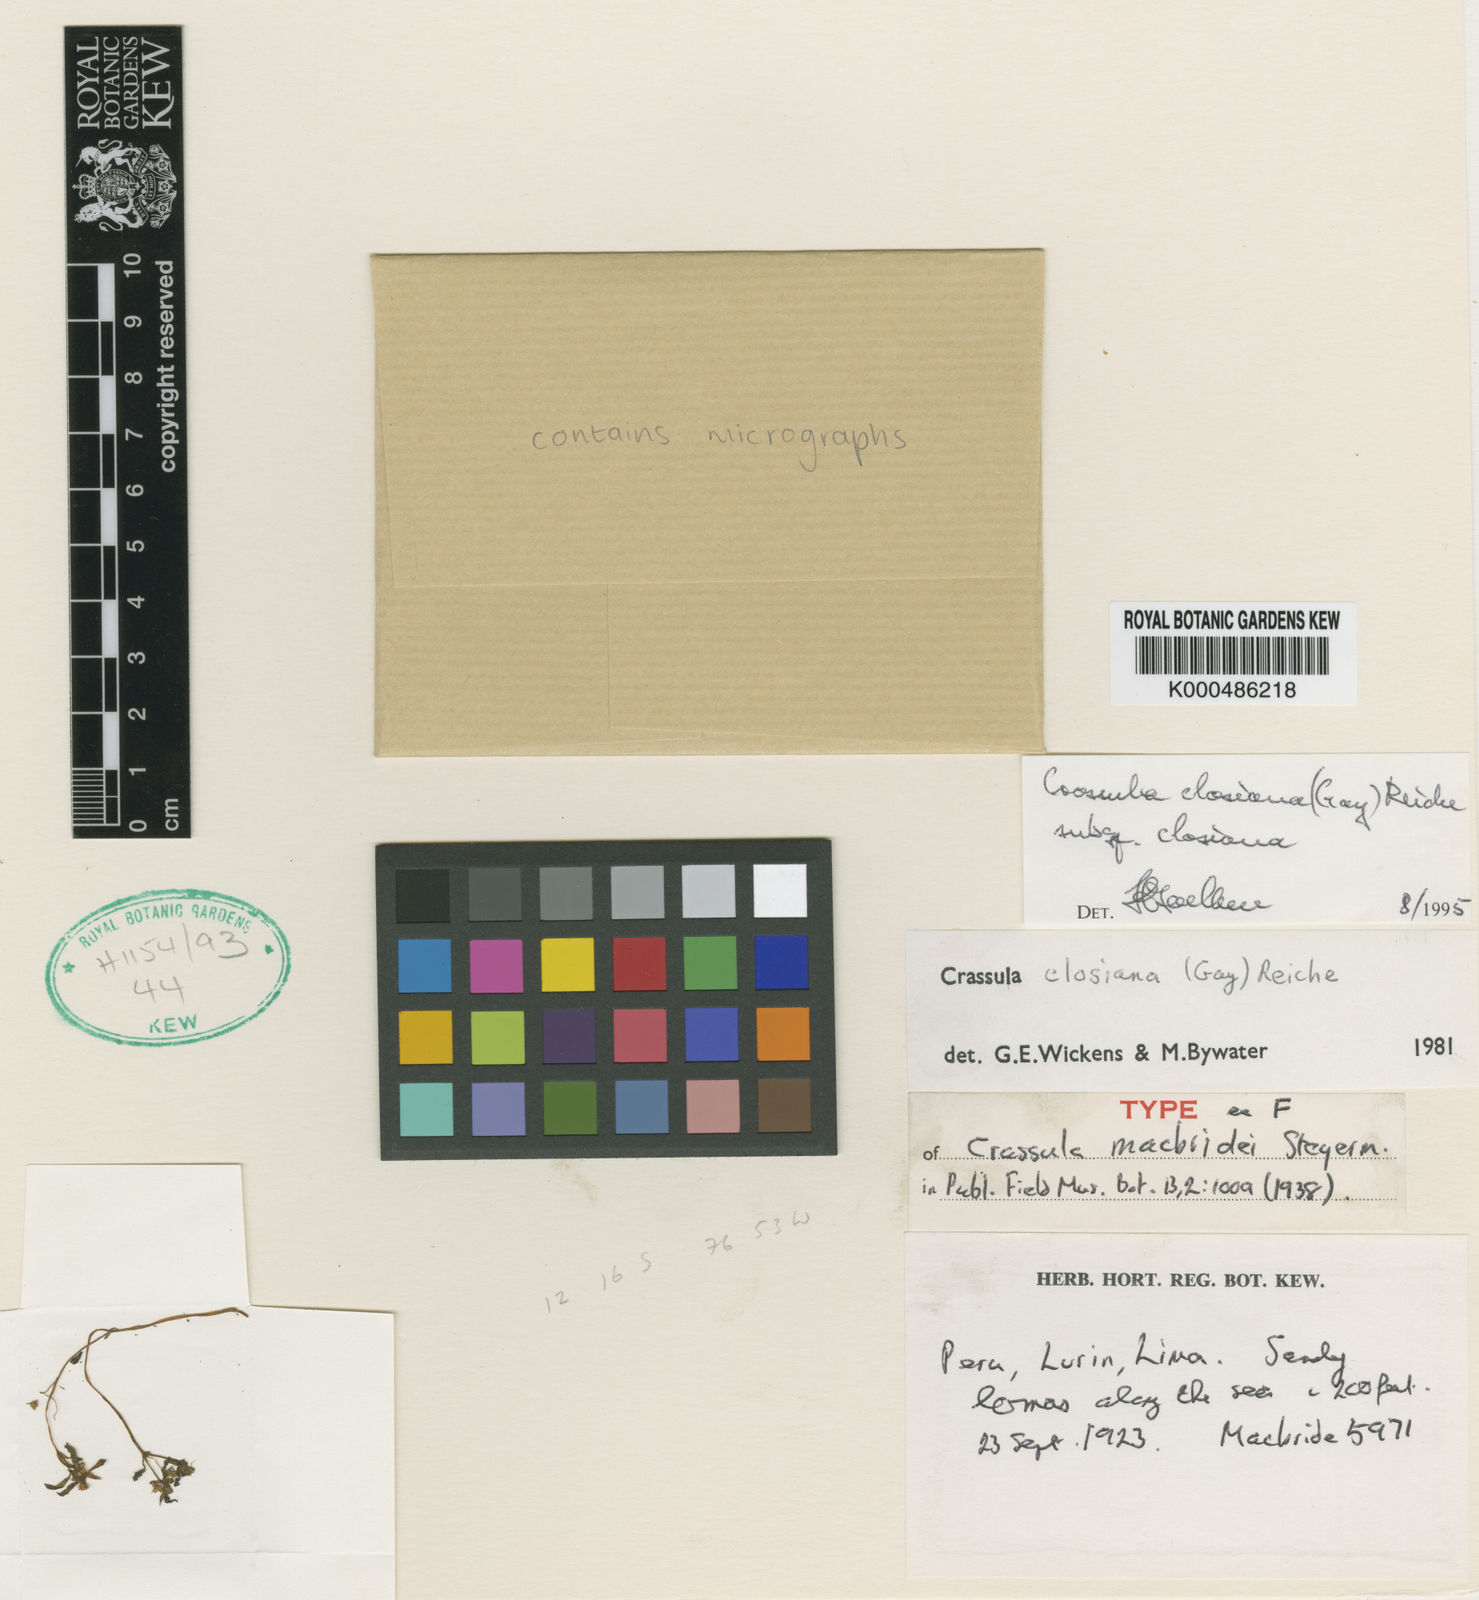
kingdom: Plantae
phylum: Tracheophyta
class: Magnoliopsida
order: Saxifragales
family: Crassulaceae
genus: Crassula
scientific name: Crassula closiana
